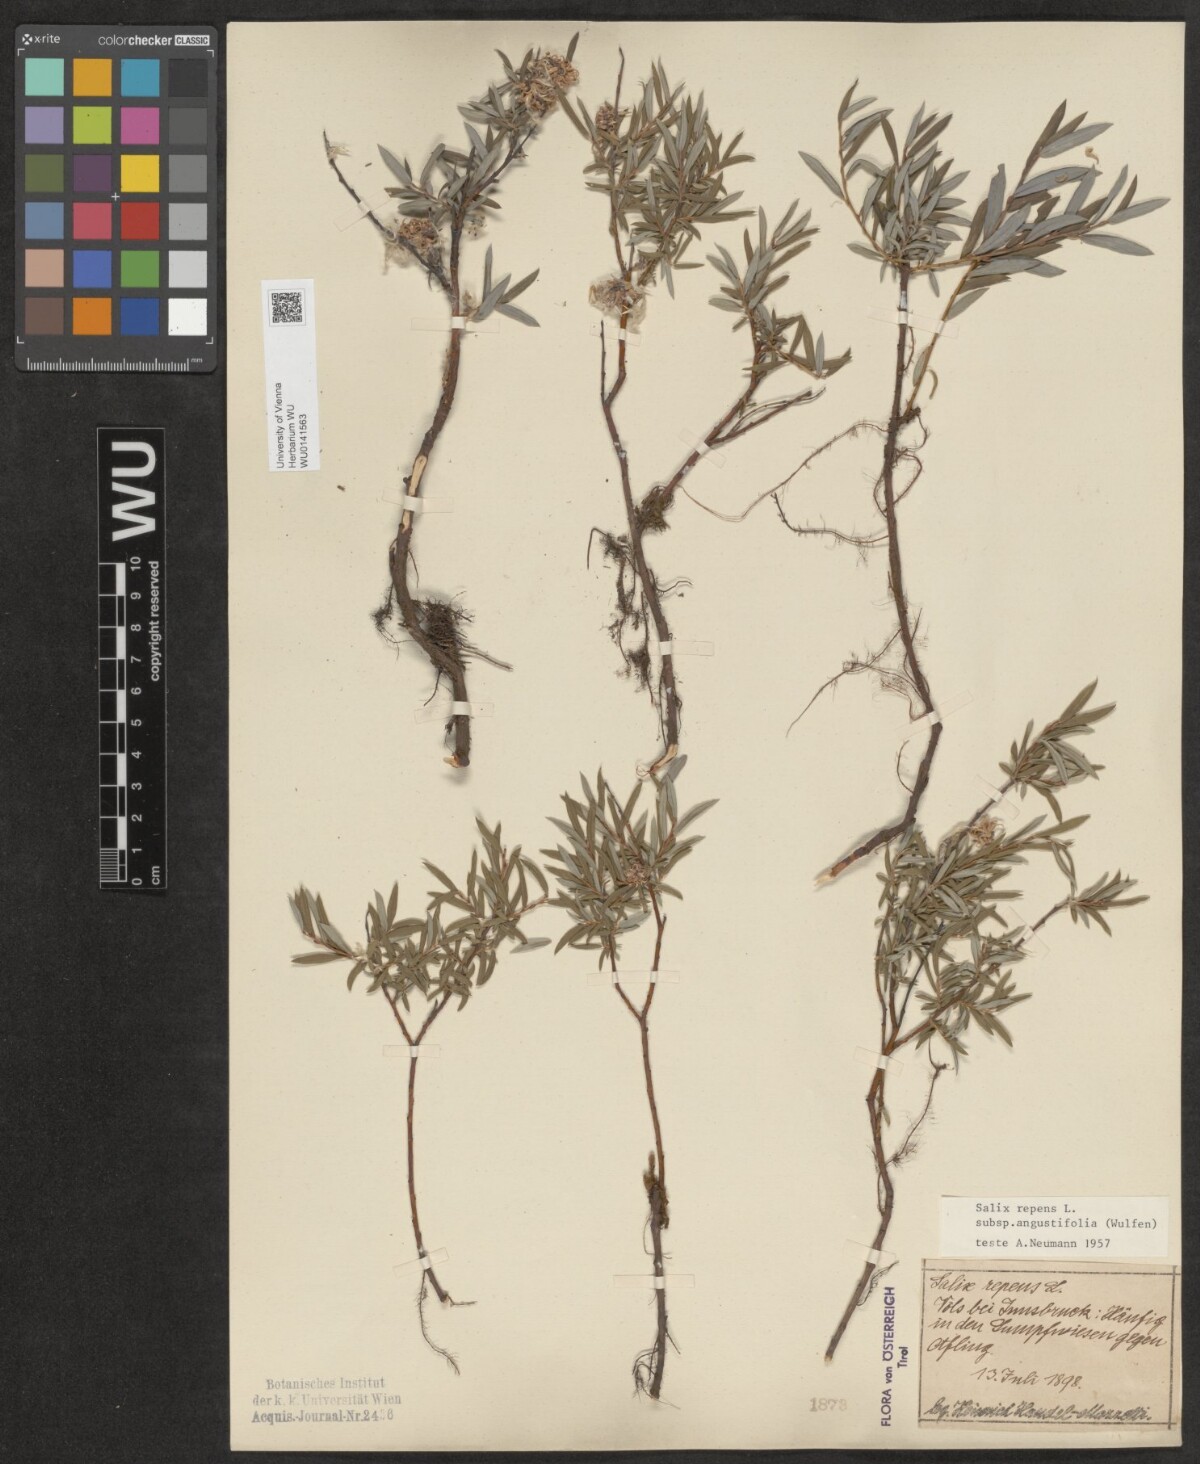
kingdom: Plantae
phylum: Tracheophyta
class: Magnoliopsida
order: Malpighiales
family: Salicaceae
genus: Salix
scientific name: Salix repens
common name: Creeping willow
